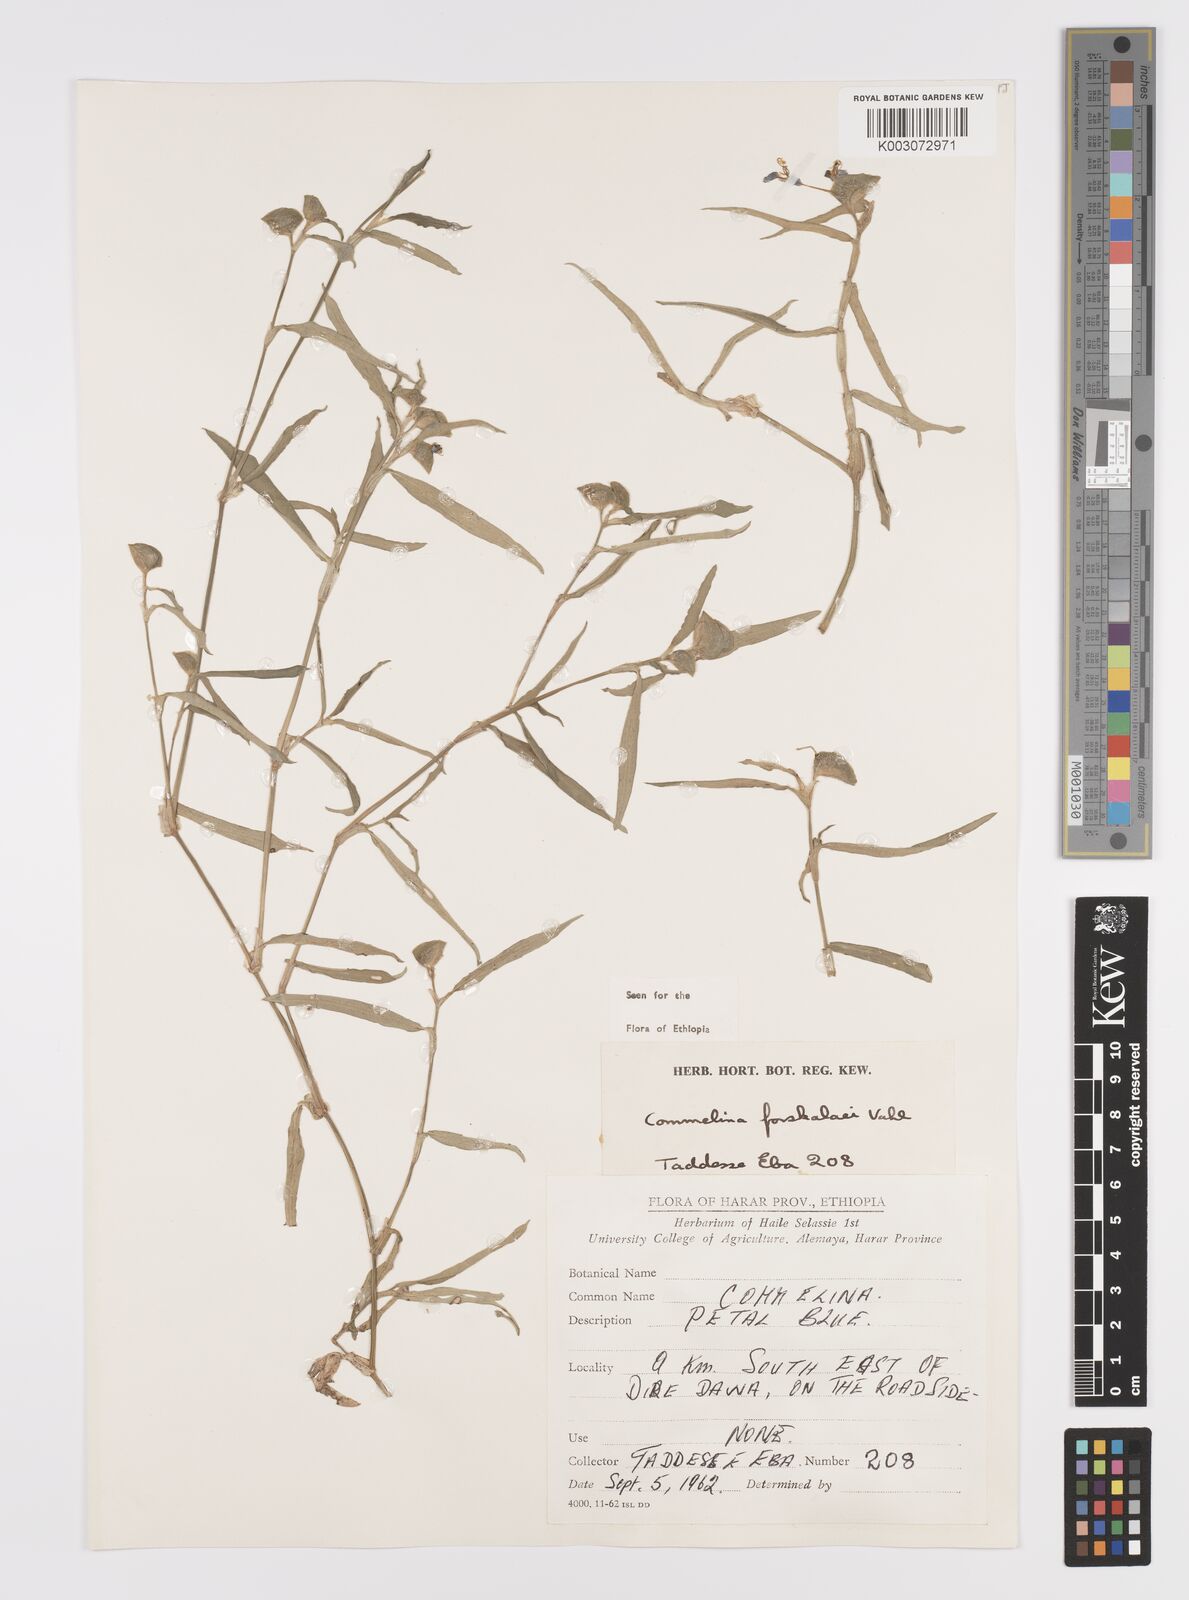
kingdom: Plantae
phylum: Tracheophyta
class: Liliopsida
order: Commelinales
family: Commelinaceae
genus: Commelina
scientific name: Commelina forskaolii
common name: Rat's ear
